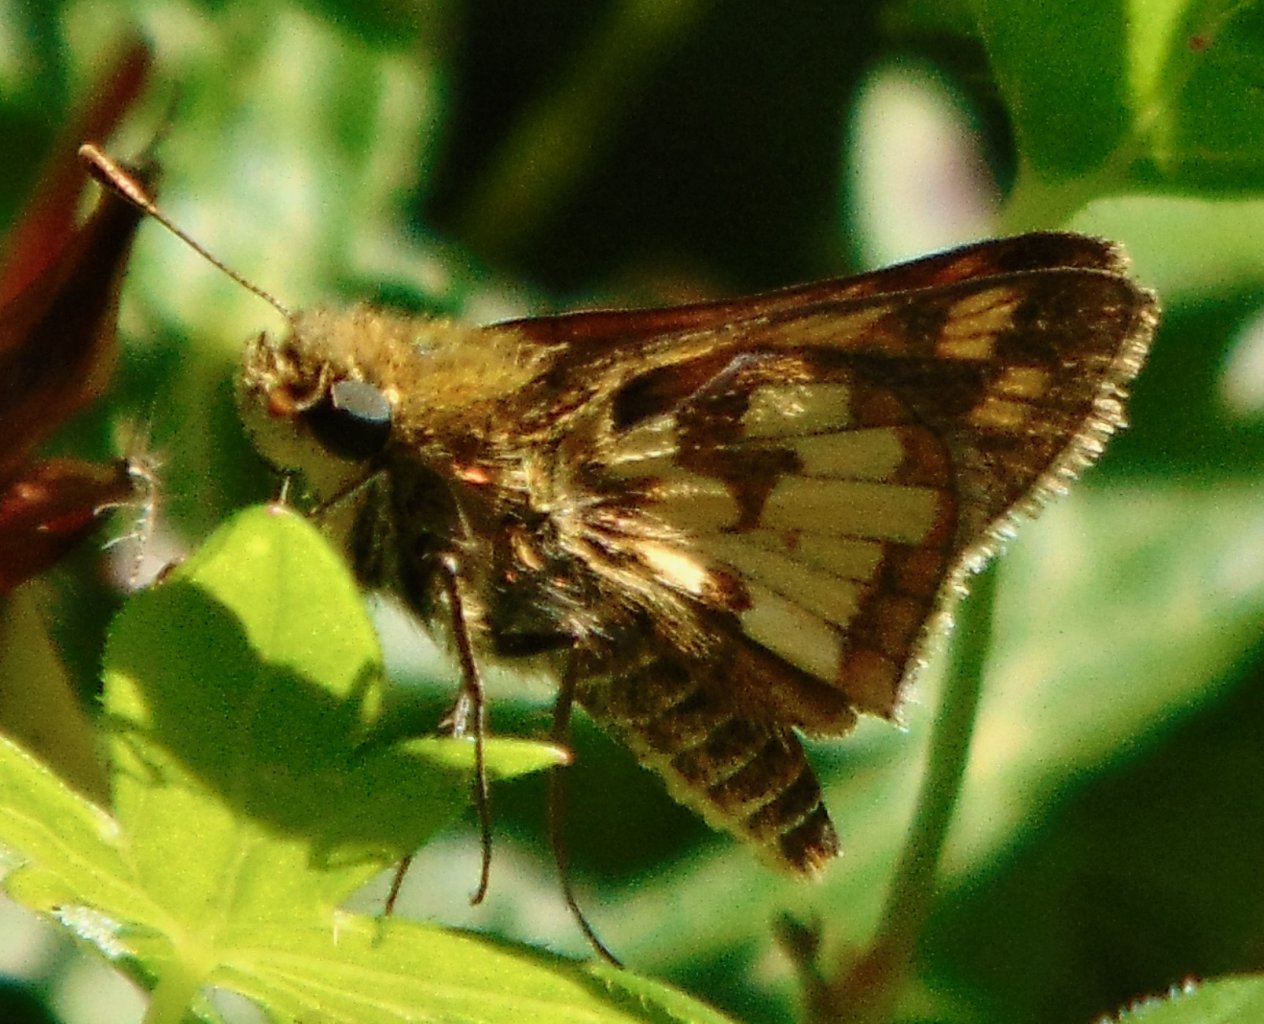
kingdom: Animalia
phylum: Arthropoda
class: Insecta
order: Lepidoptera
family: Hesperiidae
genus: Polites
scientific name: Polites coras
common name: Peck's Skipper
